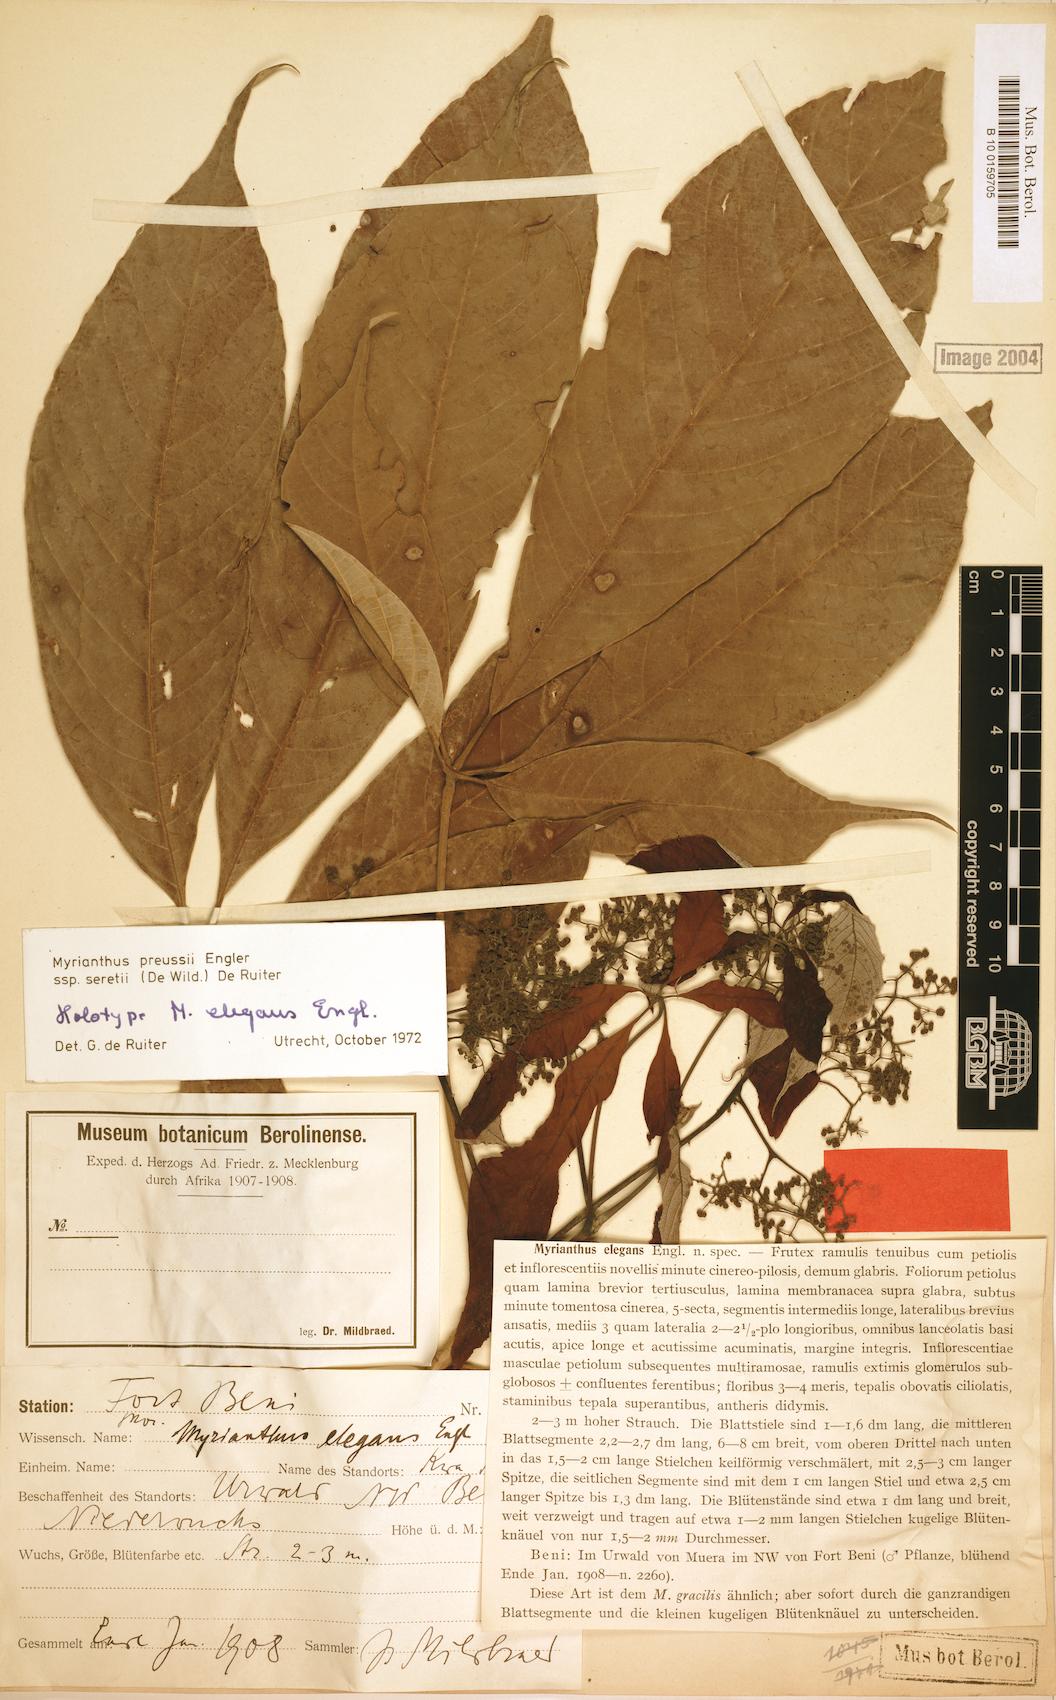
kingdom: Plantae
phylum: Tracheophyta
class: Magnoliopsida
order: Rosales
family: Urticaceae
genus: Myrianthus
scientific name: Myrianthus preussii
